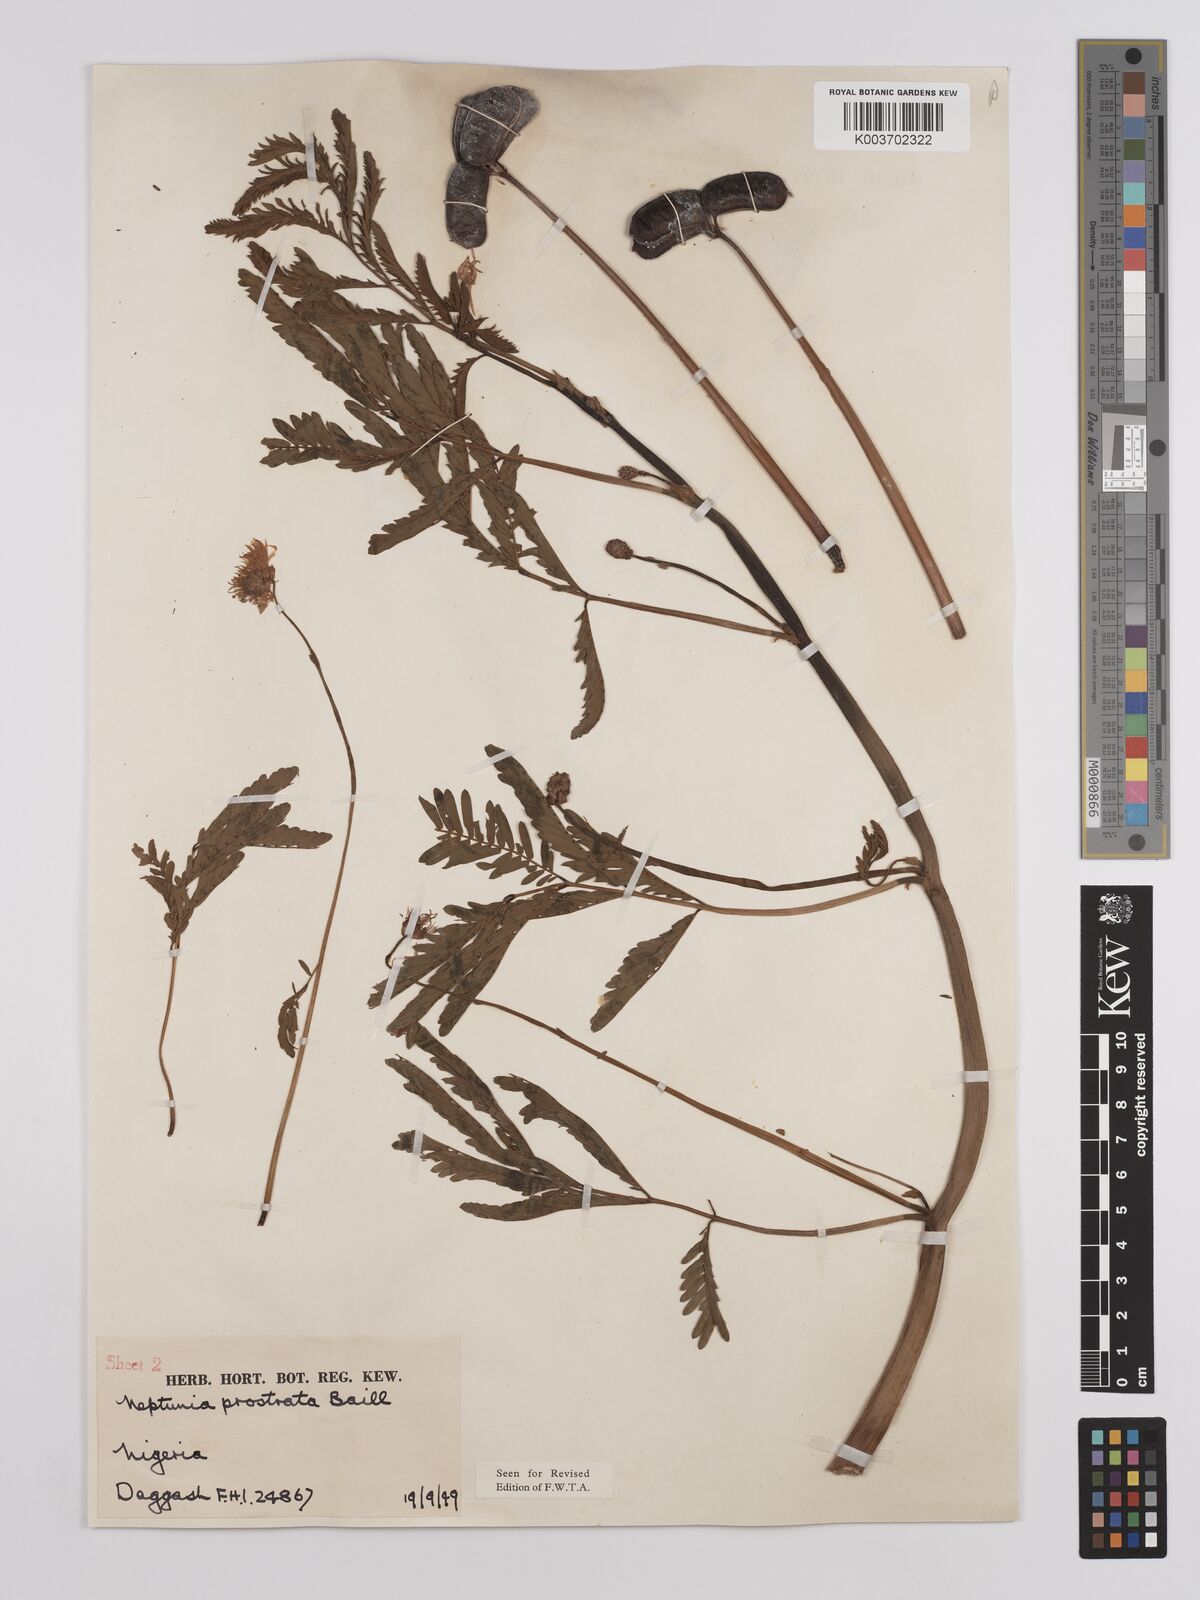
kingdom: Plantae
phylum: Tracheophyta
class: Magnoliopsida
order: Fabales
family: Fabaceae
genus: Neptunia
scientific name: Neptunia prostrata
